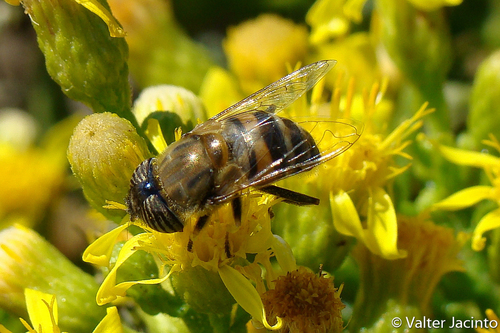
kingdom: Animalia
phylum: Arthropoda
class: Insecta
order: Diptera
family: Syrphidae
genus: Eristalinus
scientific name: Eristalinus taeniops
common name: Syrphid fly
